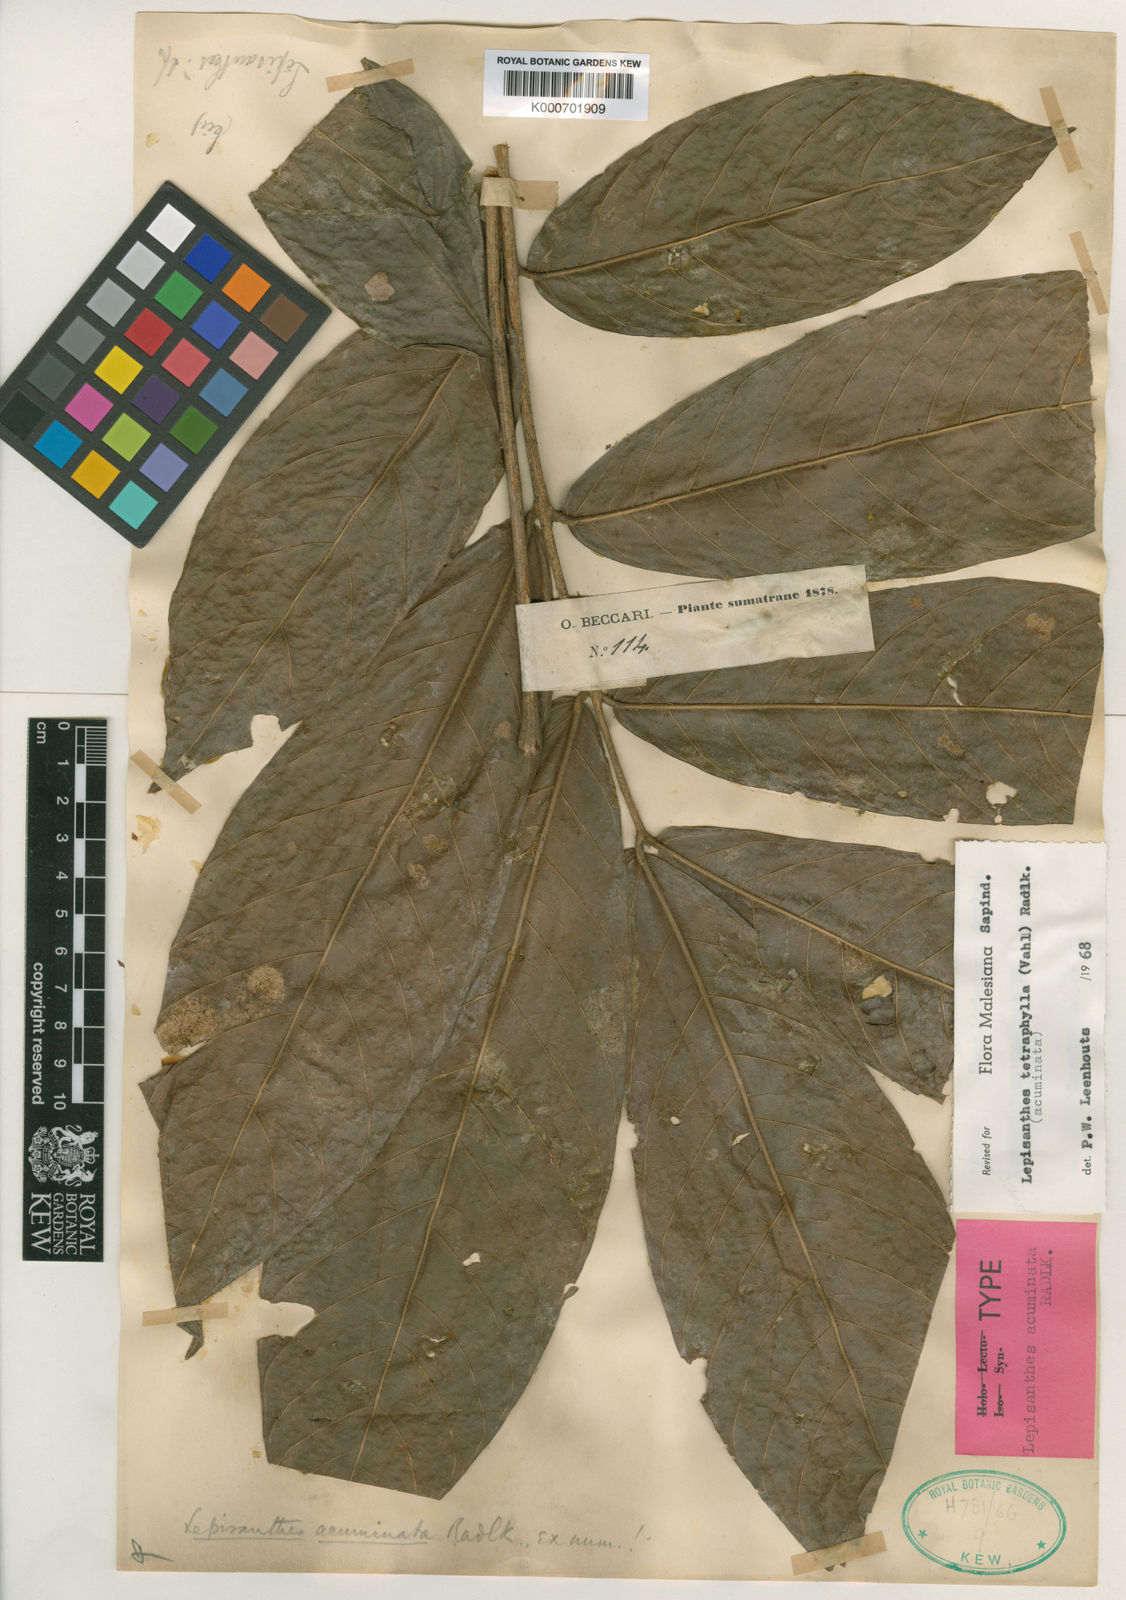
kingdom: Plantae
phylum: Tracheophyta
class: Magnoliopsida
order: Sapindales
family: Sapindaceae
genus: Lepisanthes
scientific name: Lepisanthes tetraphylla
